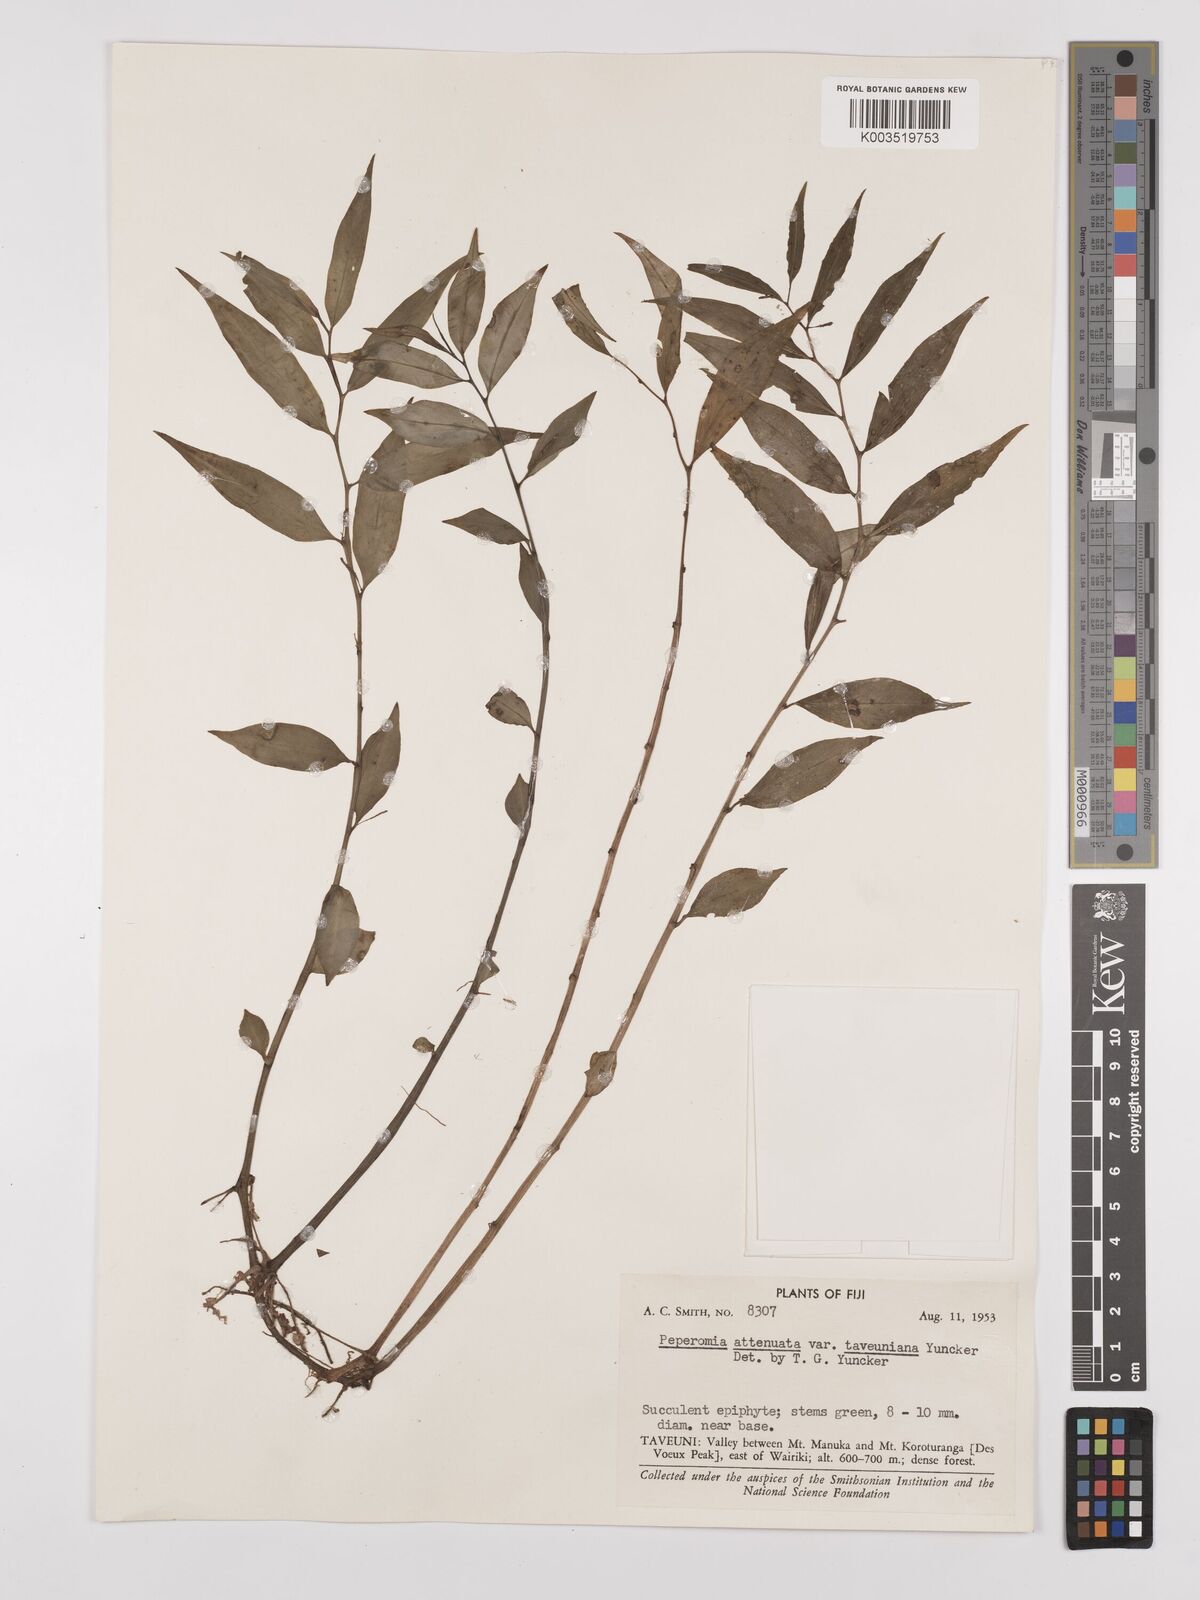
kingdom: Plantae
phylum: Tracheophyta
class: Magnoliopsida
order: Piperales
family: Piperaceae
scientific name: Piperaceae
